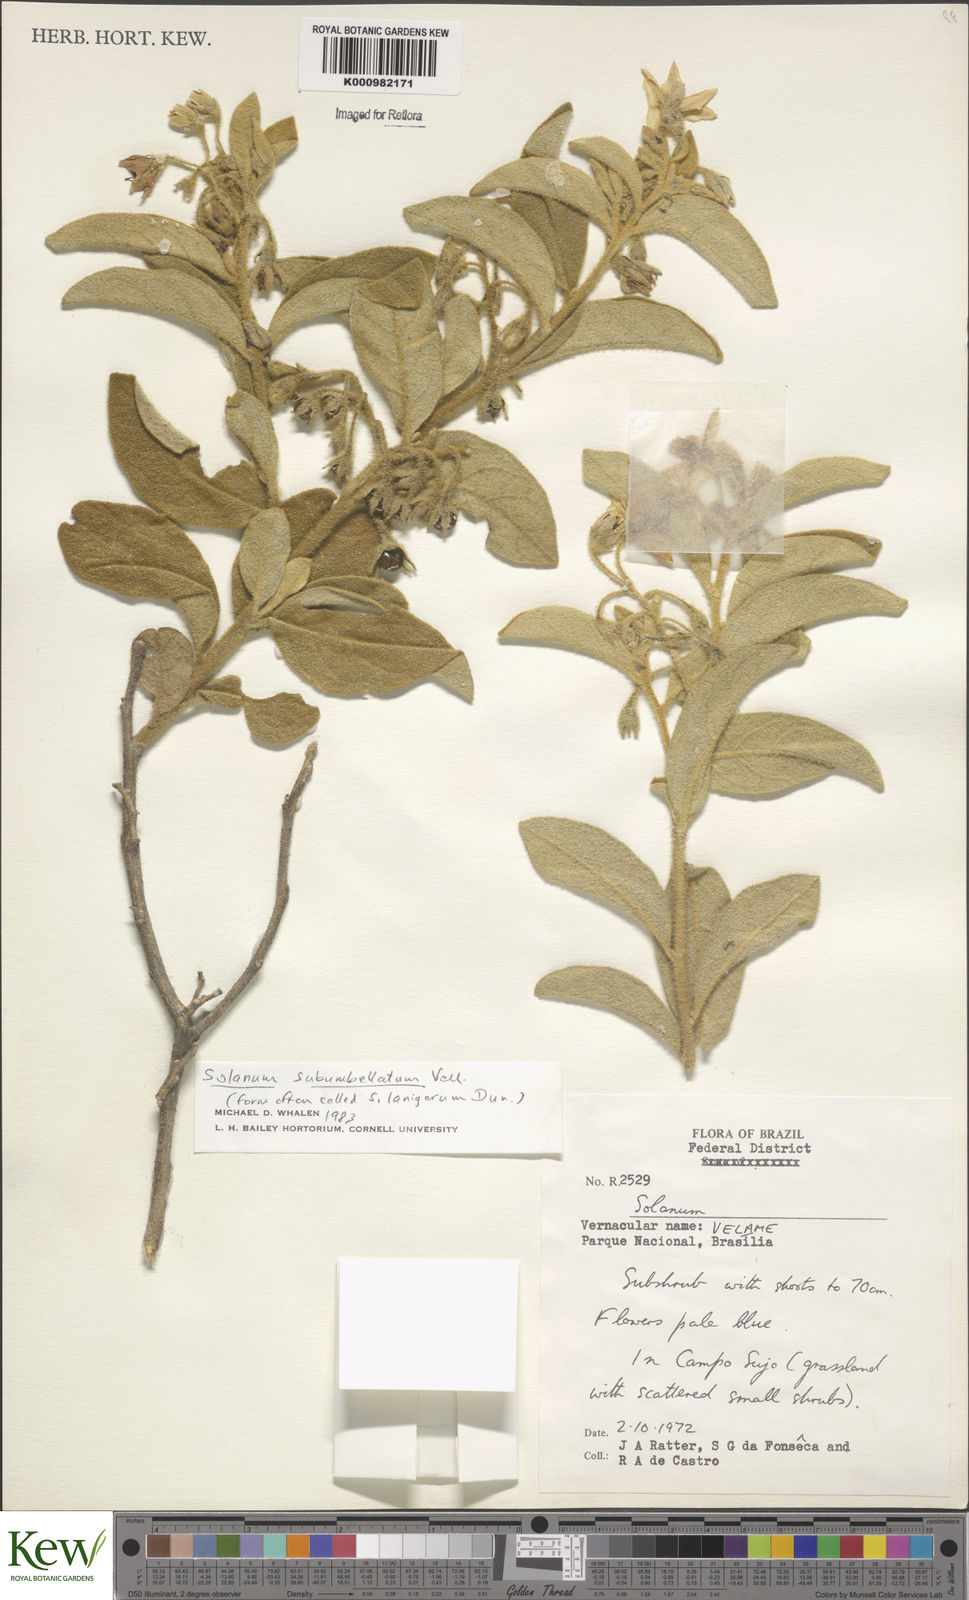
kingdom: Plantae
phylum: Tracheophyta
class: Magnoliopsida
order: Solanales
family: Solanaceae
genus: Solanum
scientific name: Solanum subumbellatum
